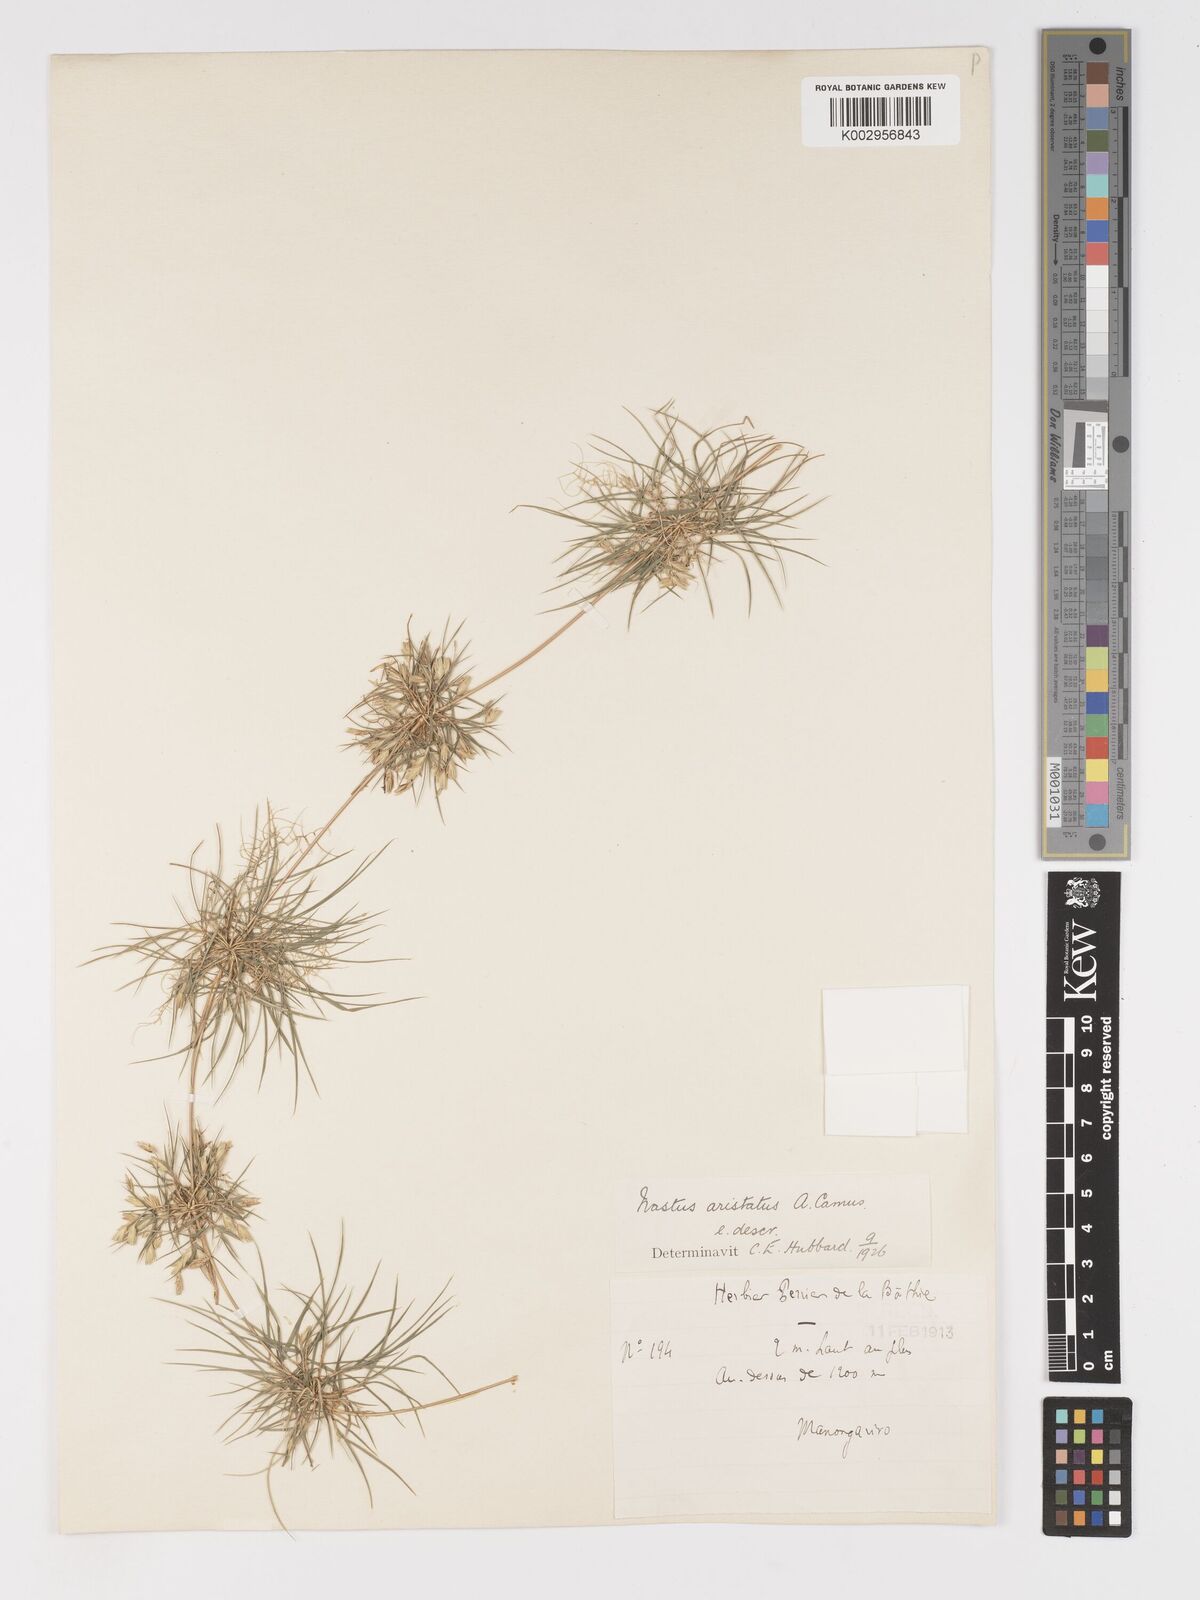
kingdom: Plantae
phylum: Tracheophyta
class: Liliopsida
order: Poales
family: Poaceae
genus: Nastus
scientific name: Nastus aristatus
